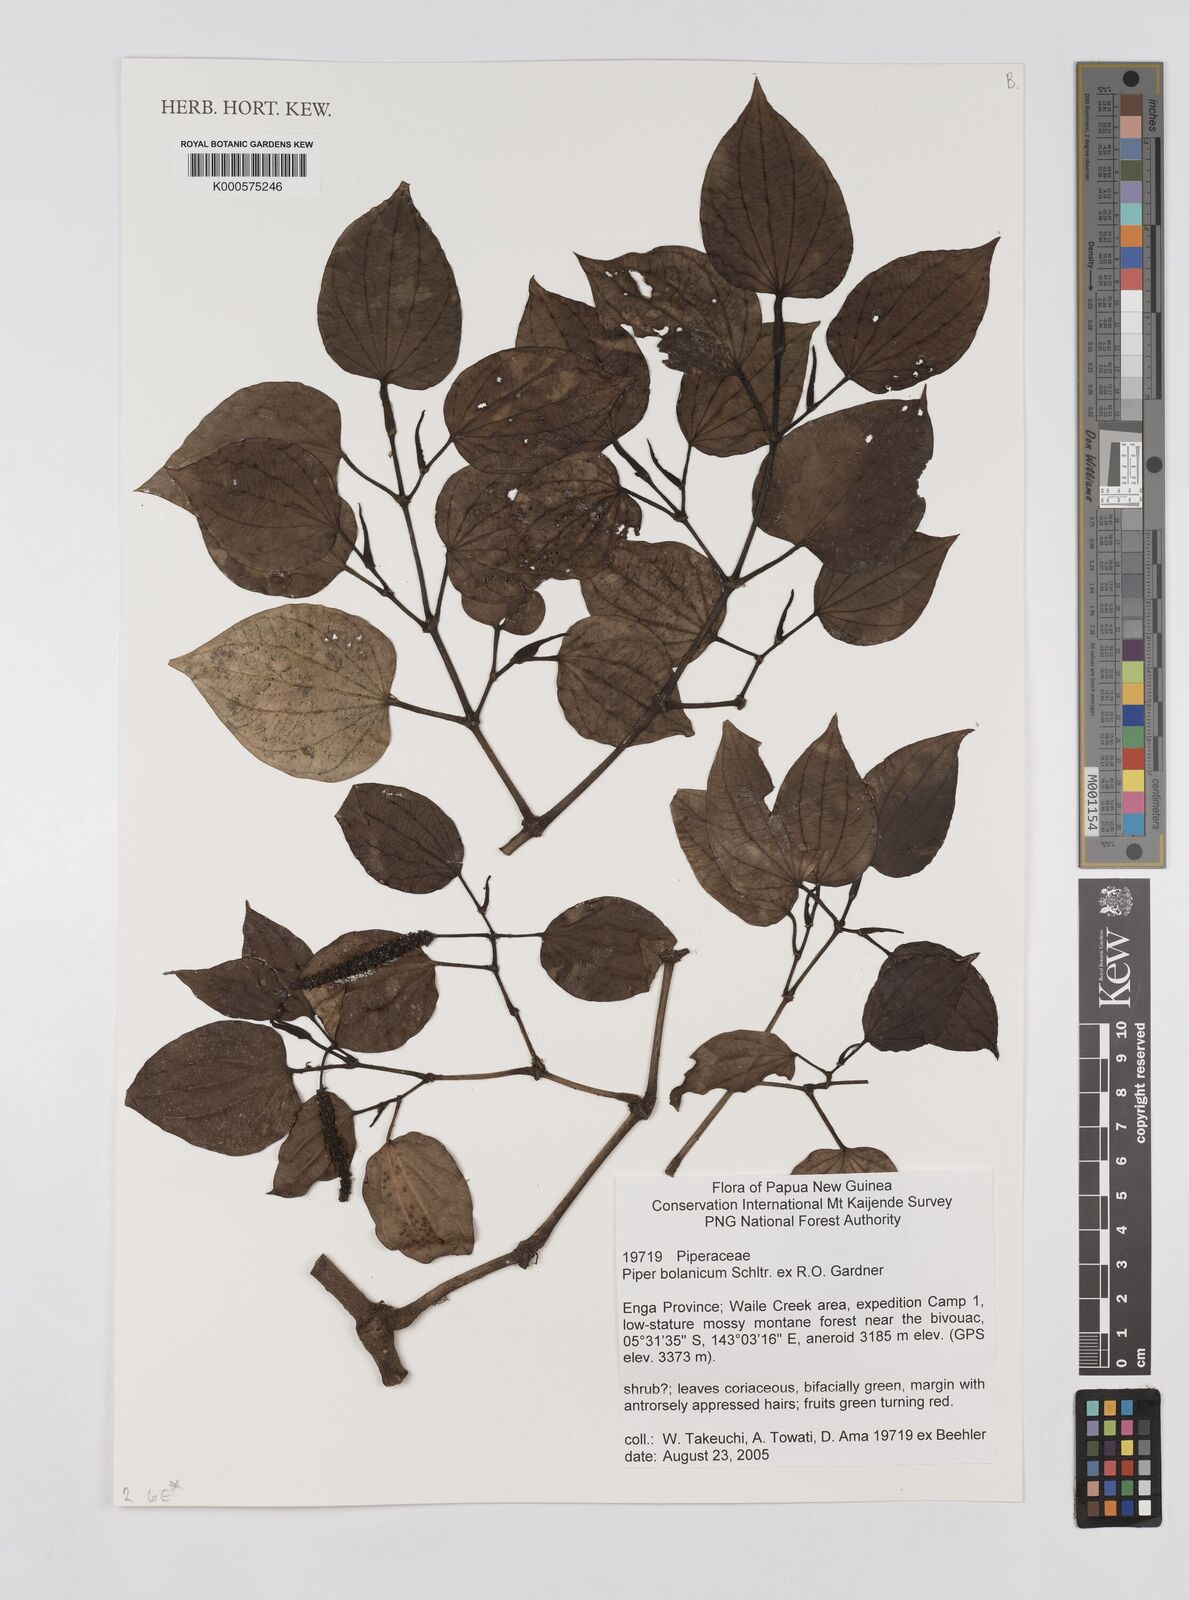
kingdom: Plantae
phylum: Tracheophyta
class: Magnoliopsida
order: Piperales
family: Piperaceae
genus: Piper
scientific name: Piper bolanicum
